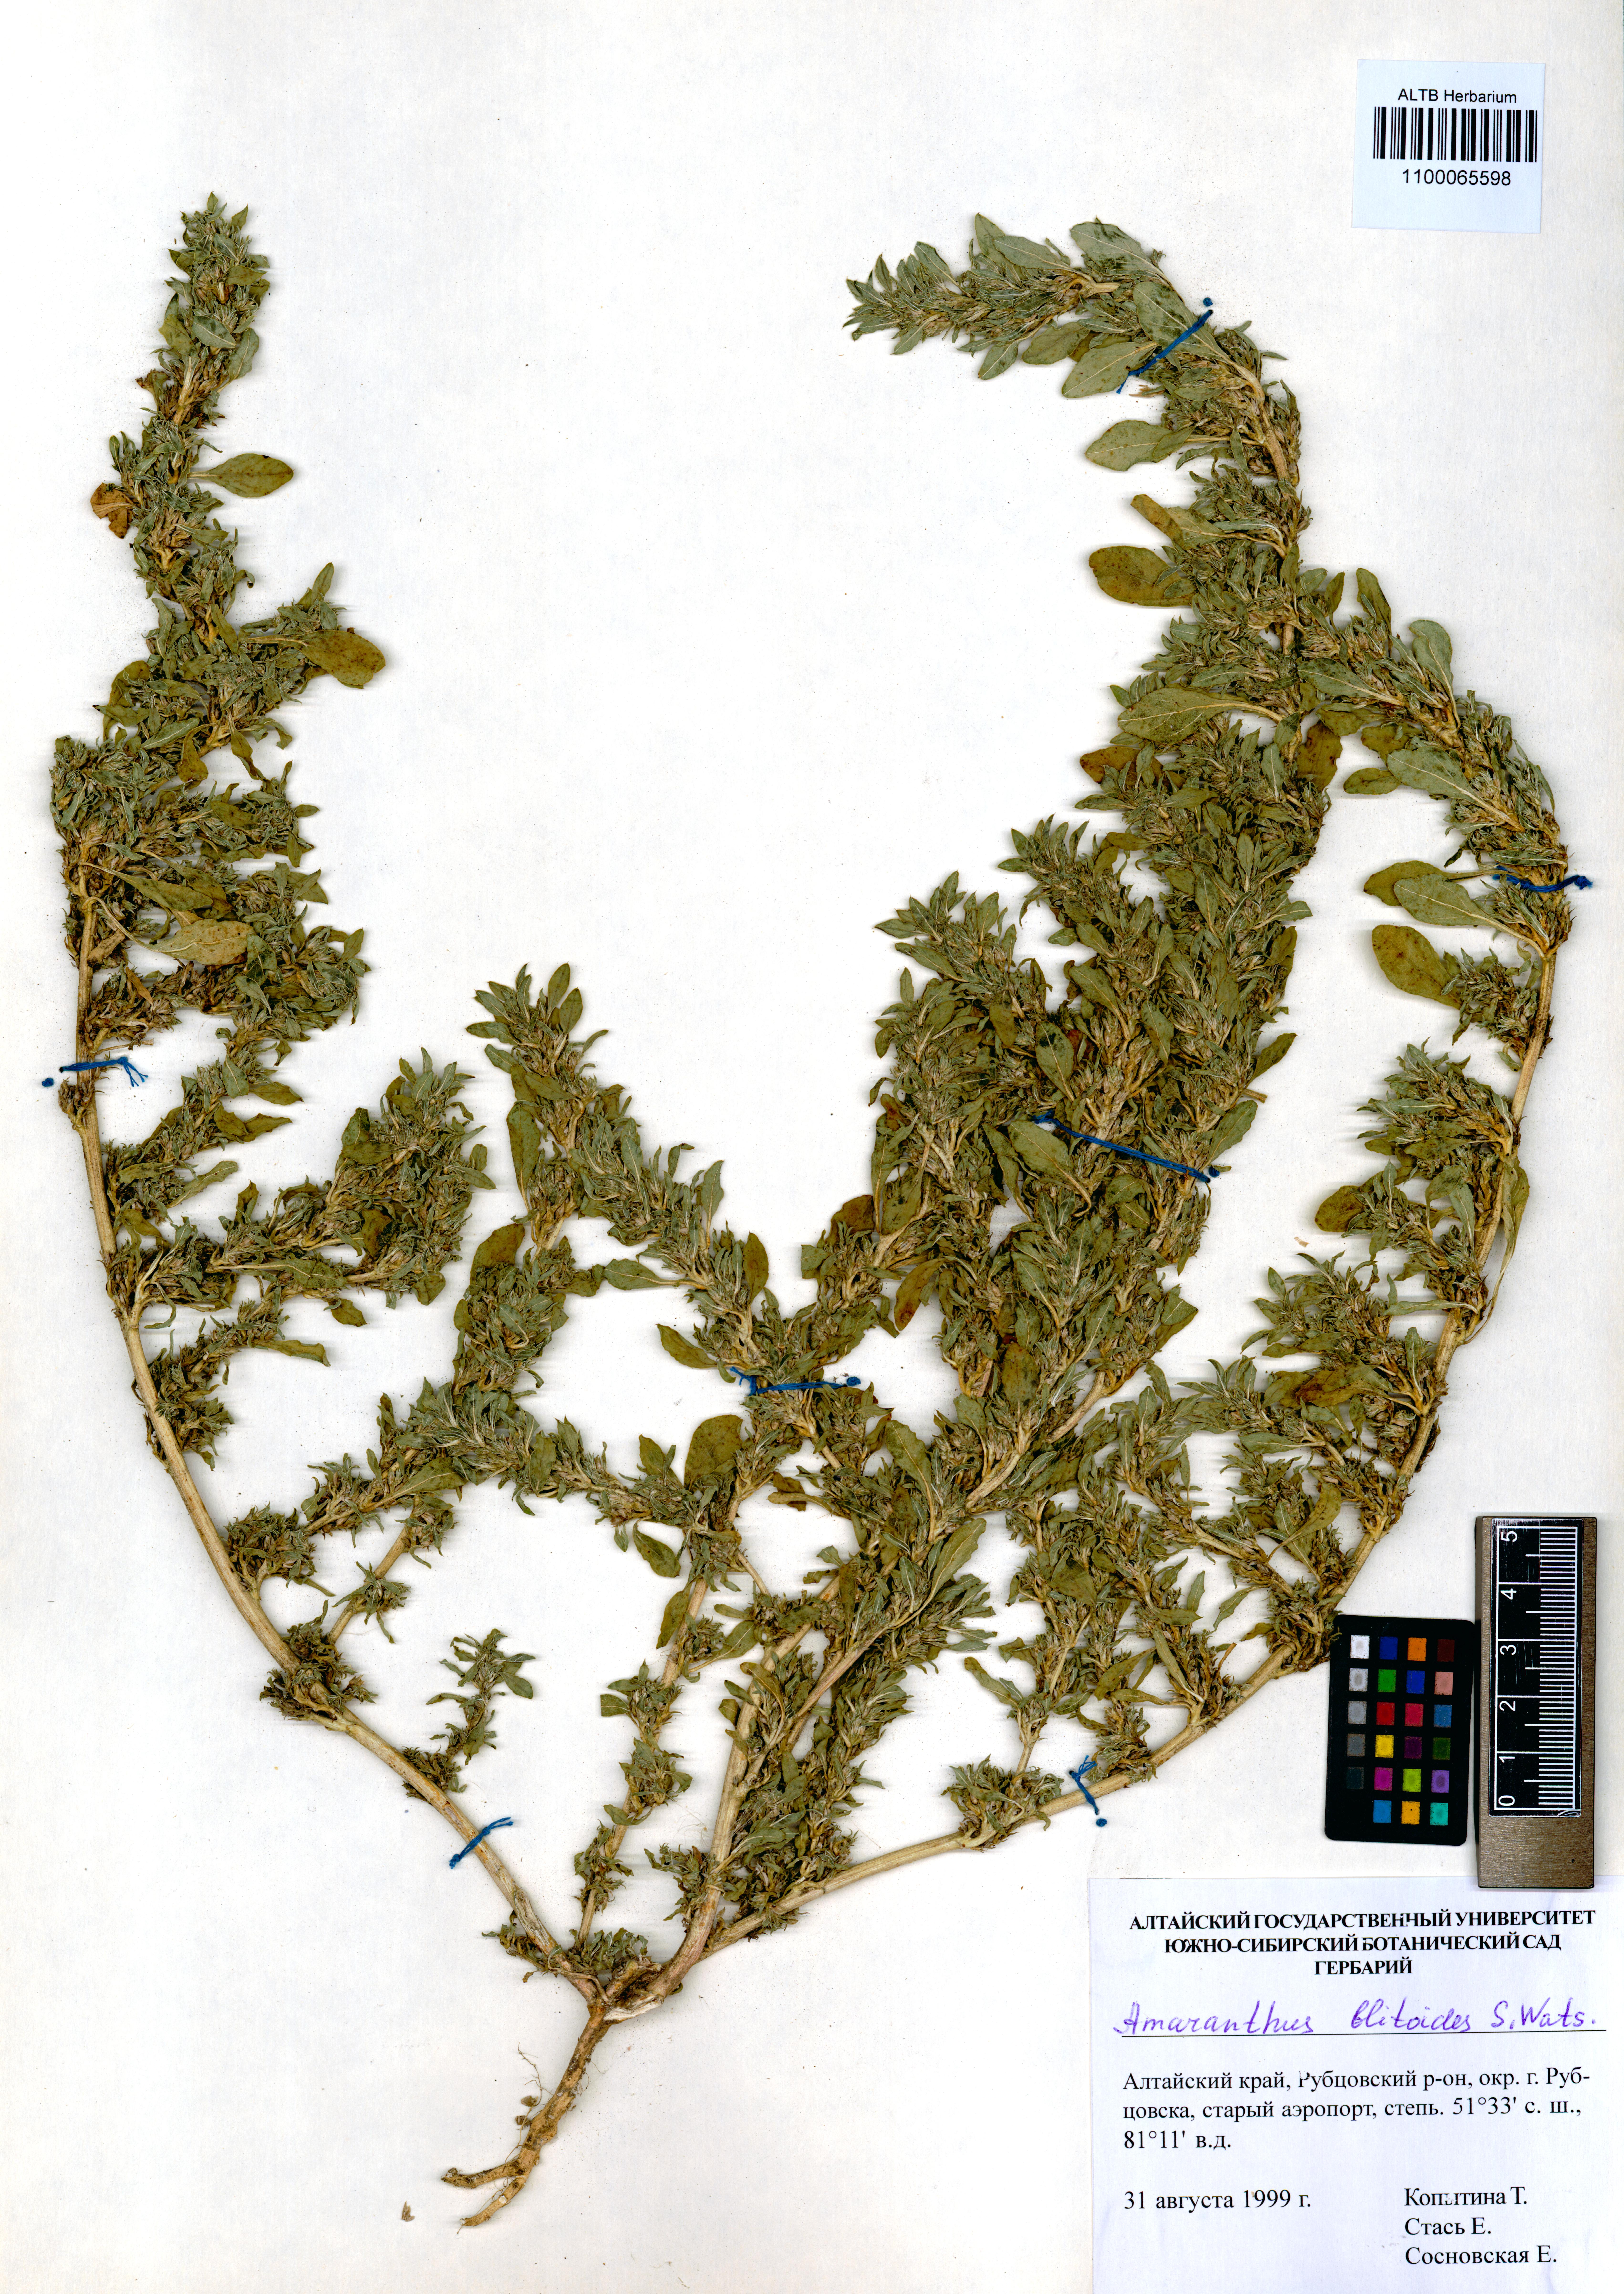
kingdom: Plantae
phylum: Tracheophyta
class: Magnoliopsida
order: Caryophyllales
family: Amaranthaceae
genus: Amaranthus
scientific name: Amaranthus blitoides
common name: Prostrate pigweed
